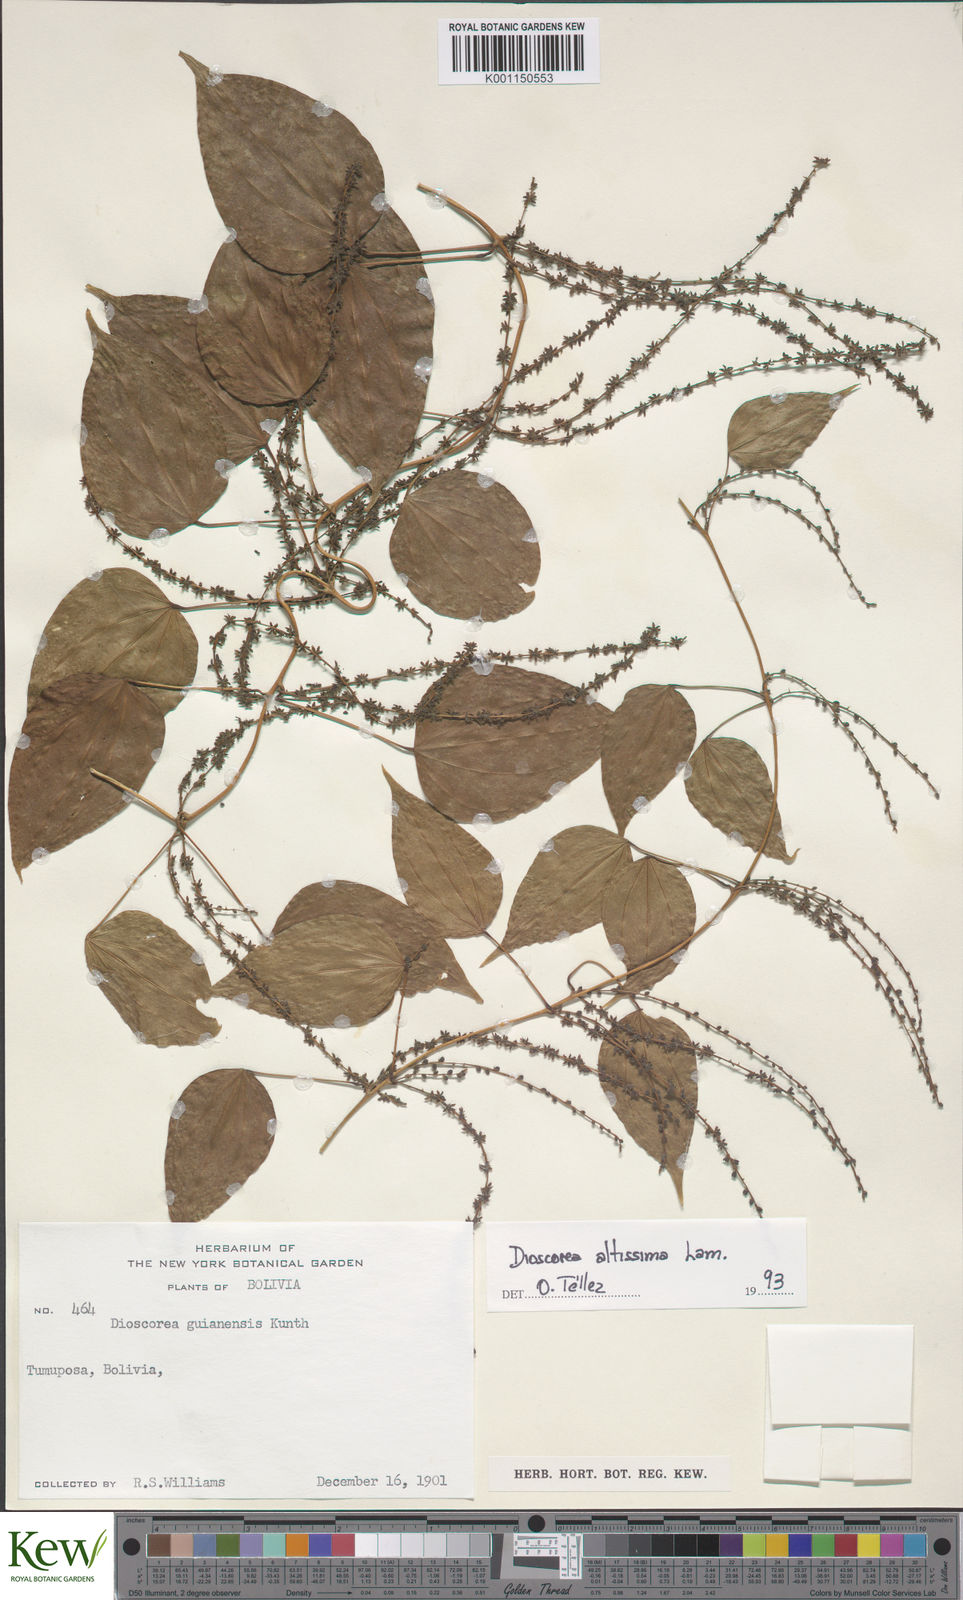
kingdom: Plantae
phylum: Tracheophyta
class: Liliopsida
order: Dioscoreales
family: Dioscoreaceae
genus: Dioscorea
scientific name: Dioscorea chondrocarpa
